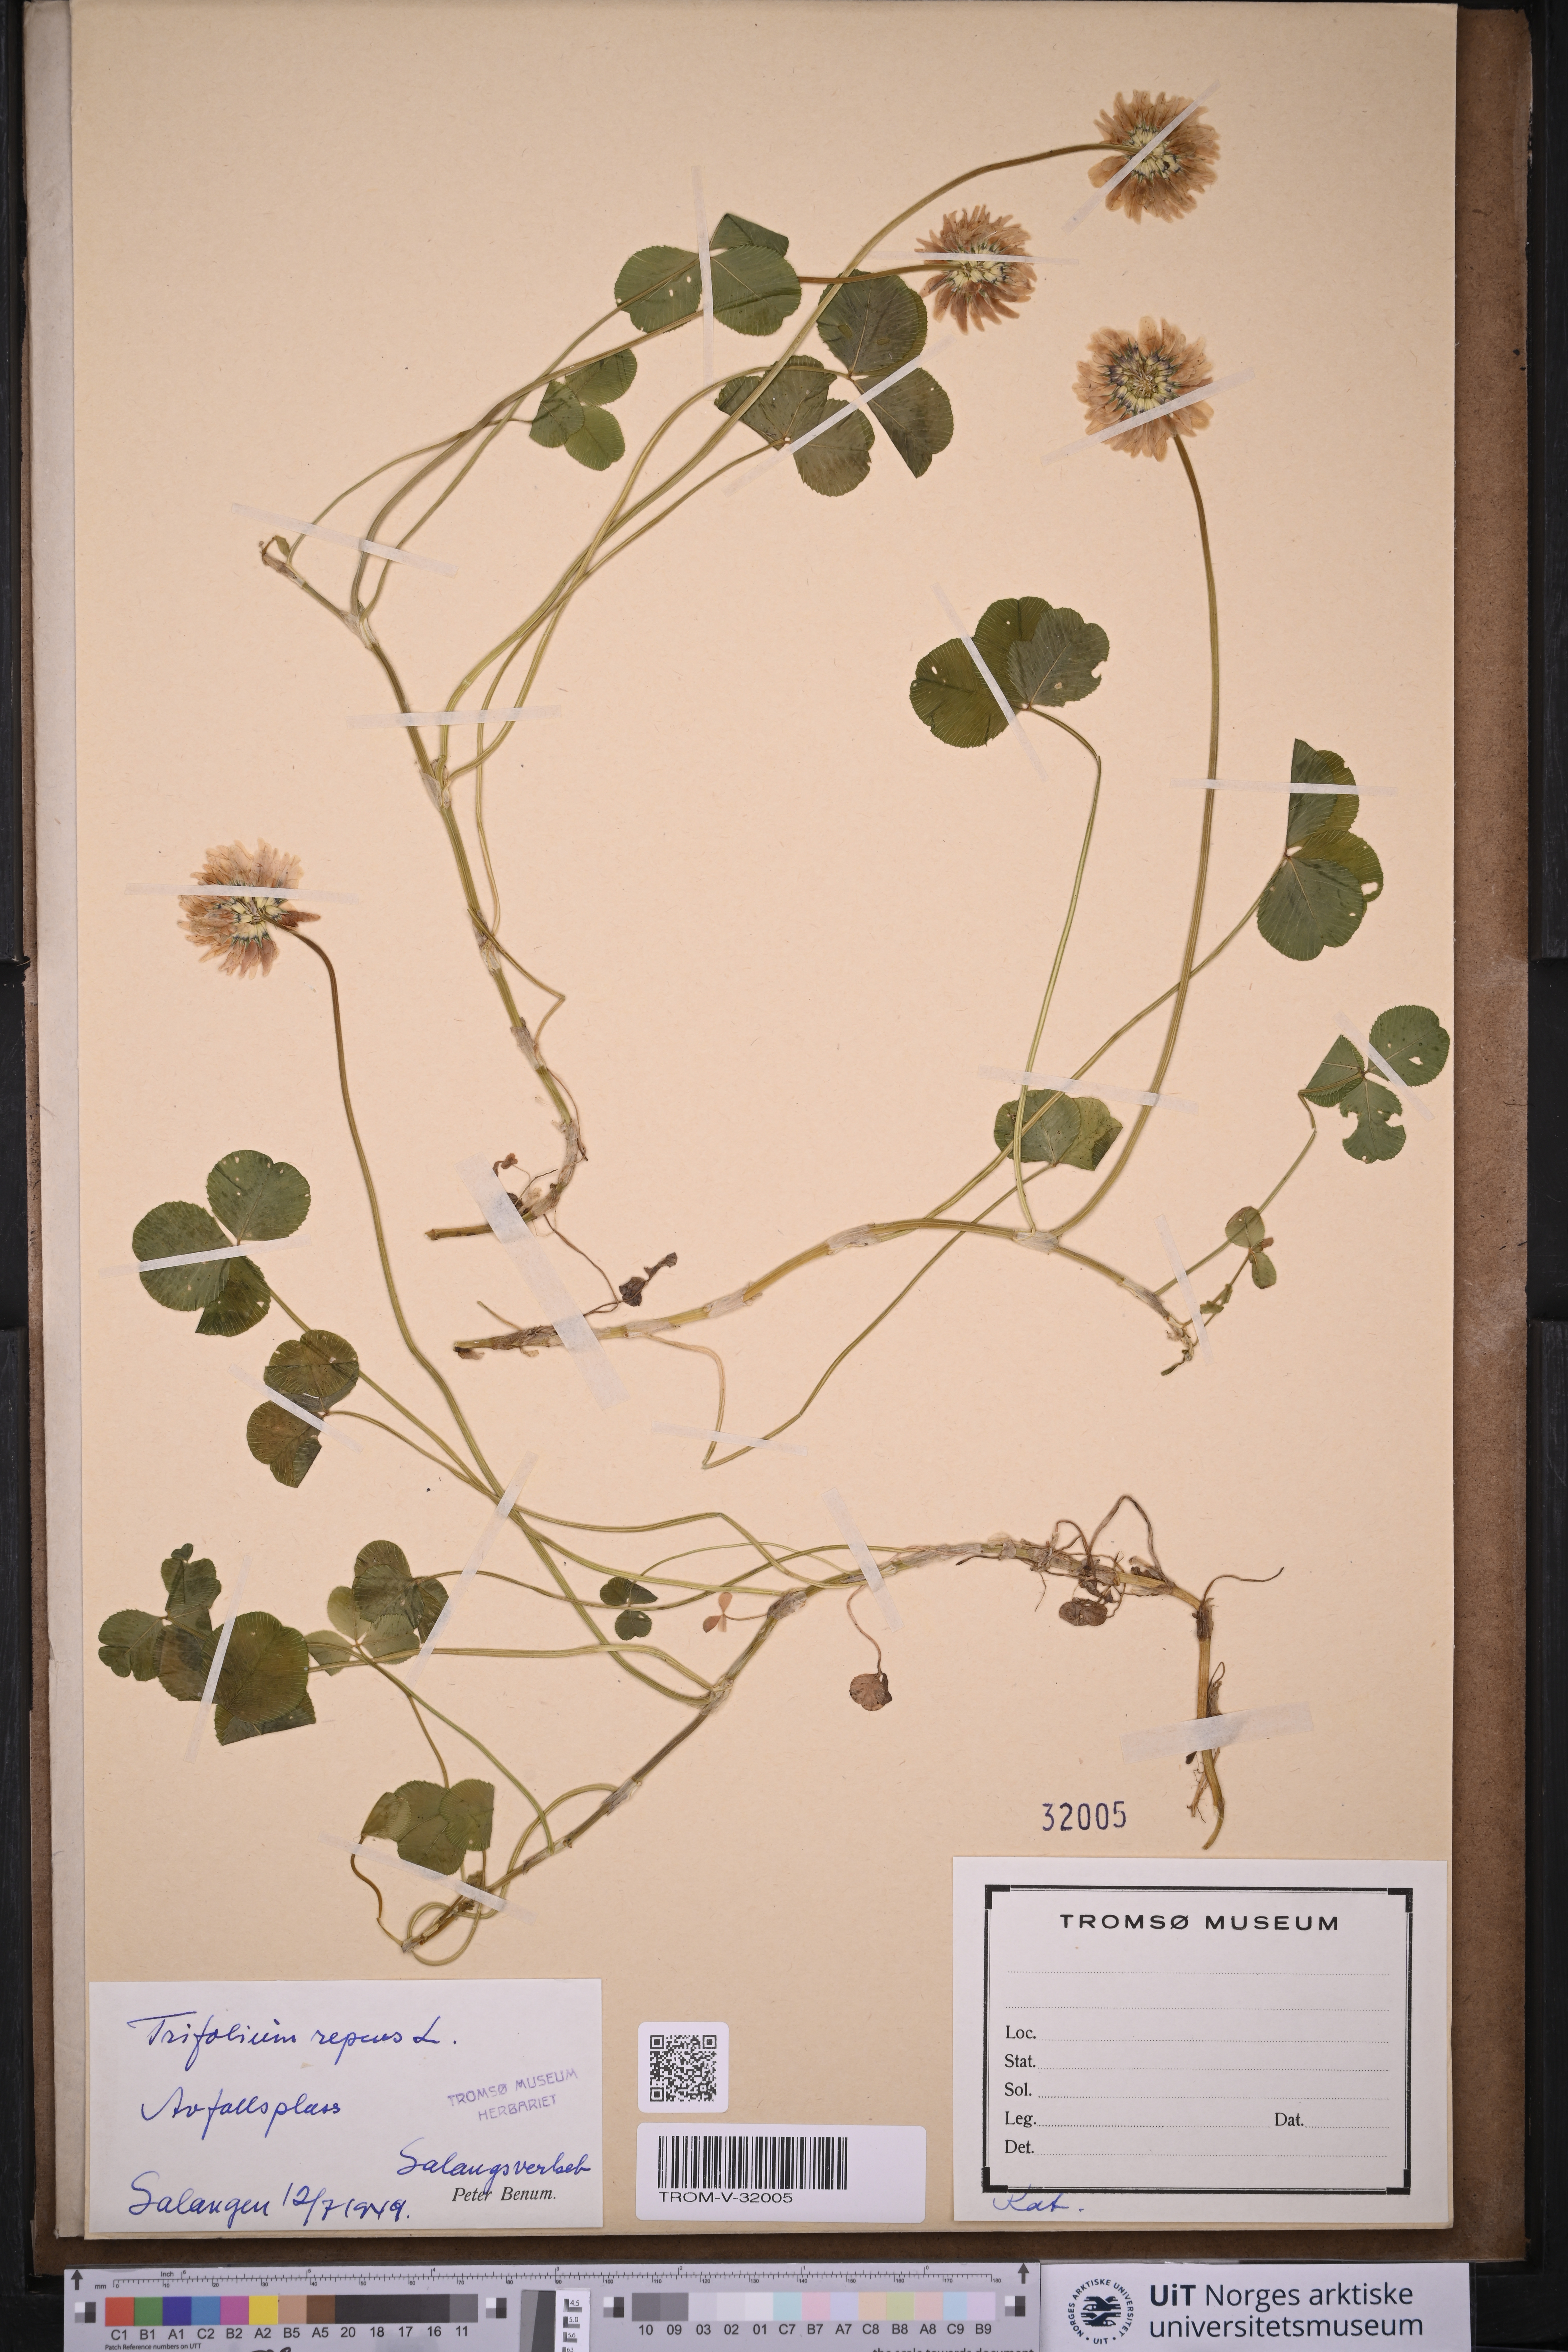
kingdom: Plantae
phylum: Tracheophyta
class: Magnoliopsida
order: Fabales
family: Fabaceae
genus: Trifolium
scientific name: Trifolium repens
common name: White clover
